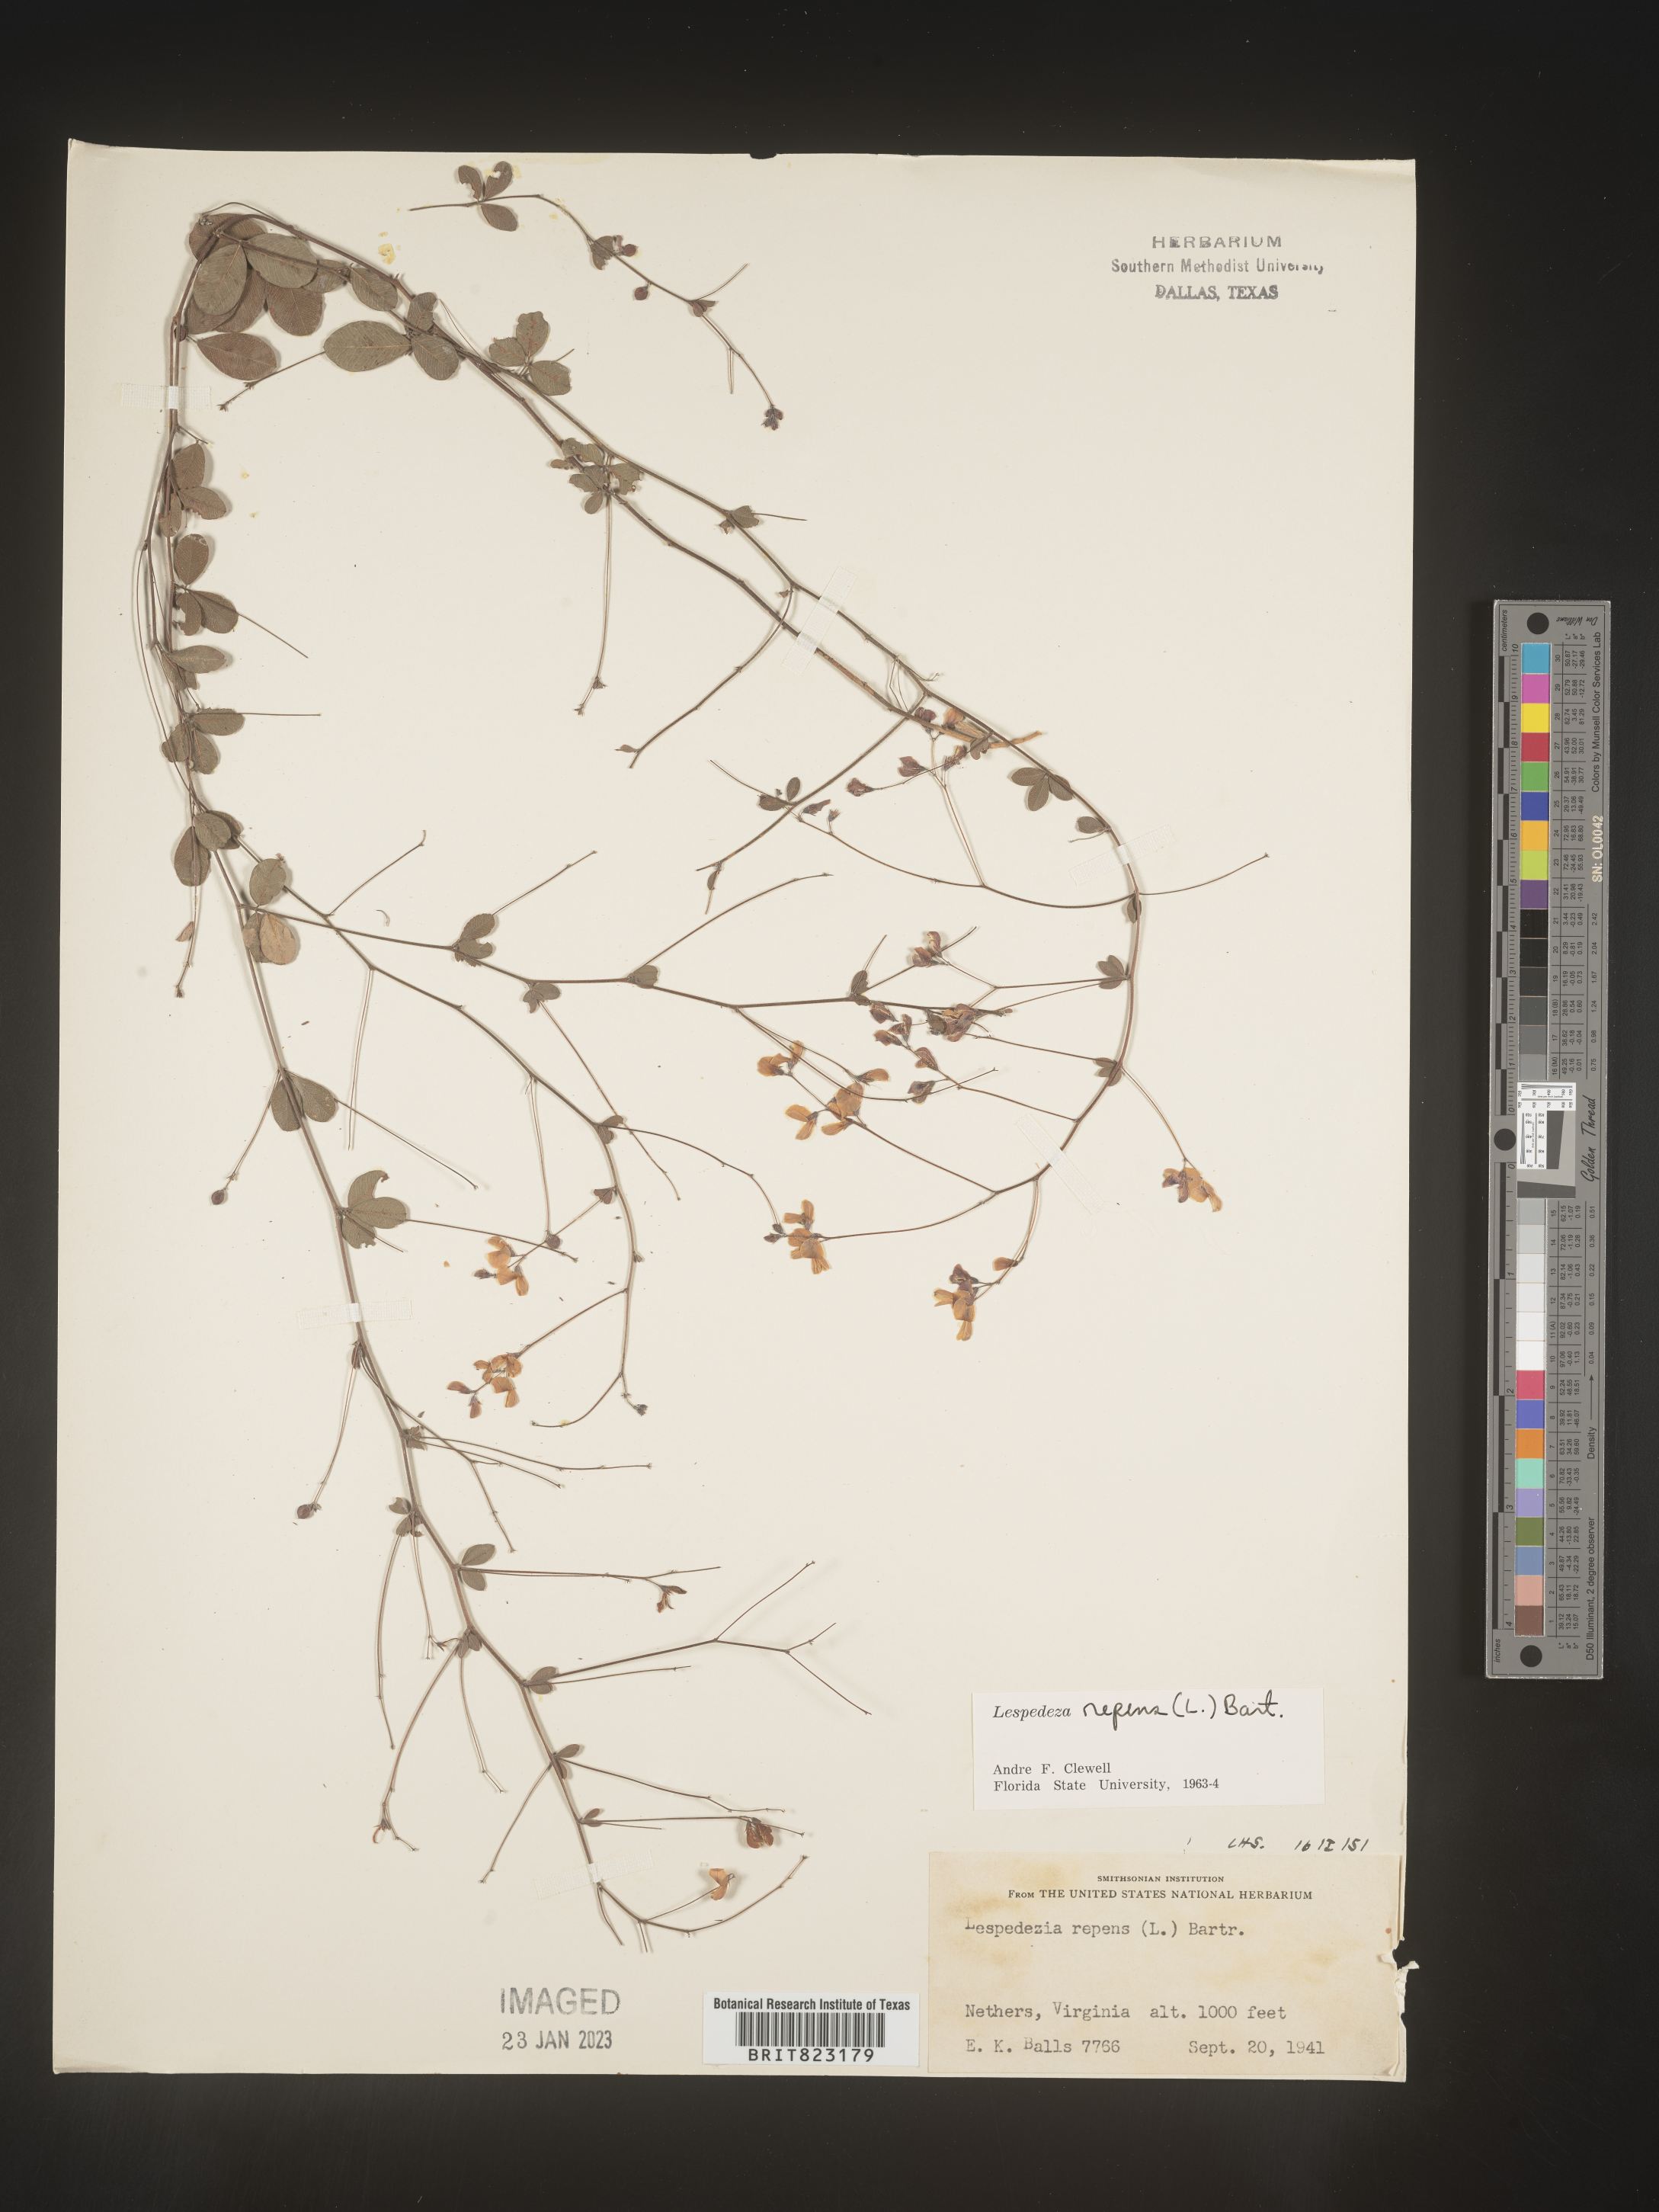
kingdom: Plantae
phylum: Tracheophyta
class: Magnoliopsida
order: Fabales
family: Fabaceae
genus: Lespedeza
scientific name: Lespedeza repens
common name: Creeping bush-clover
